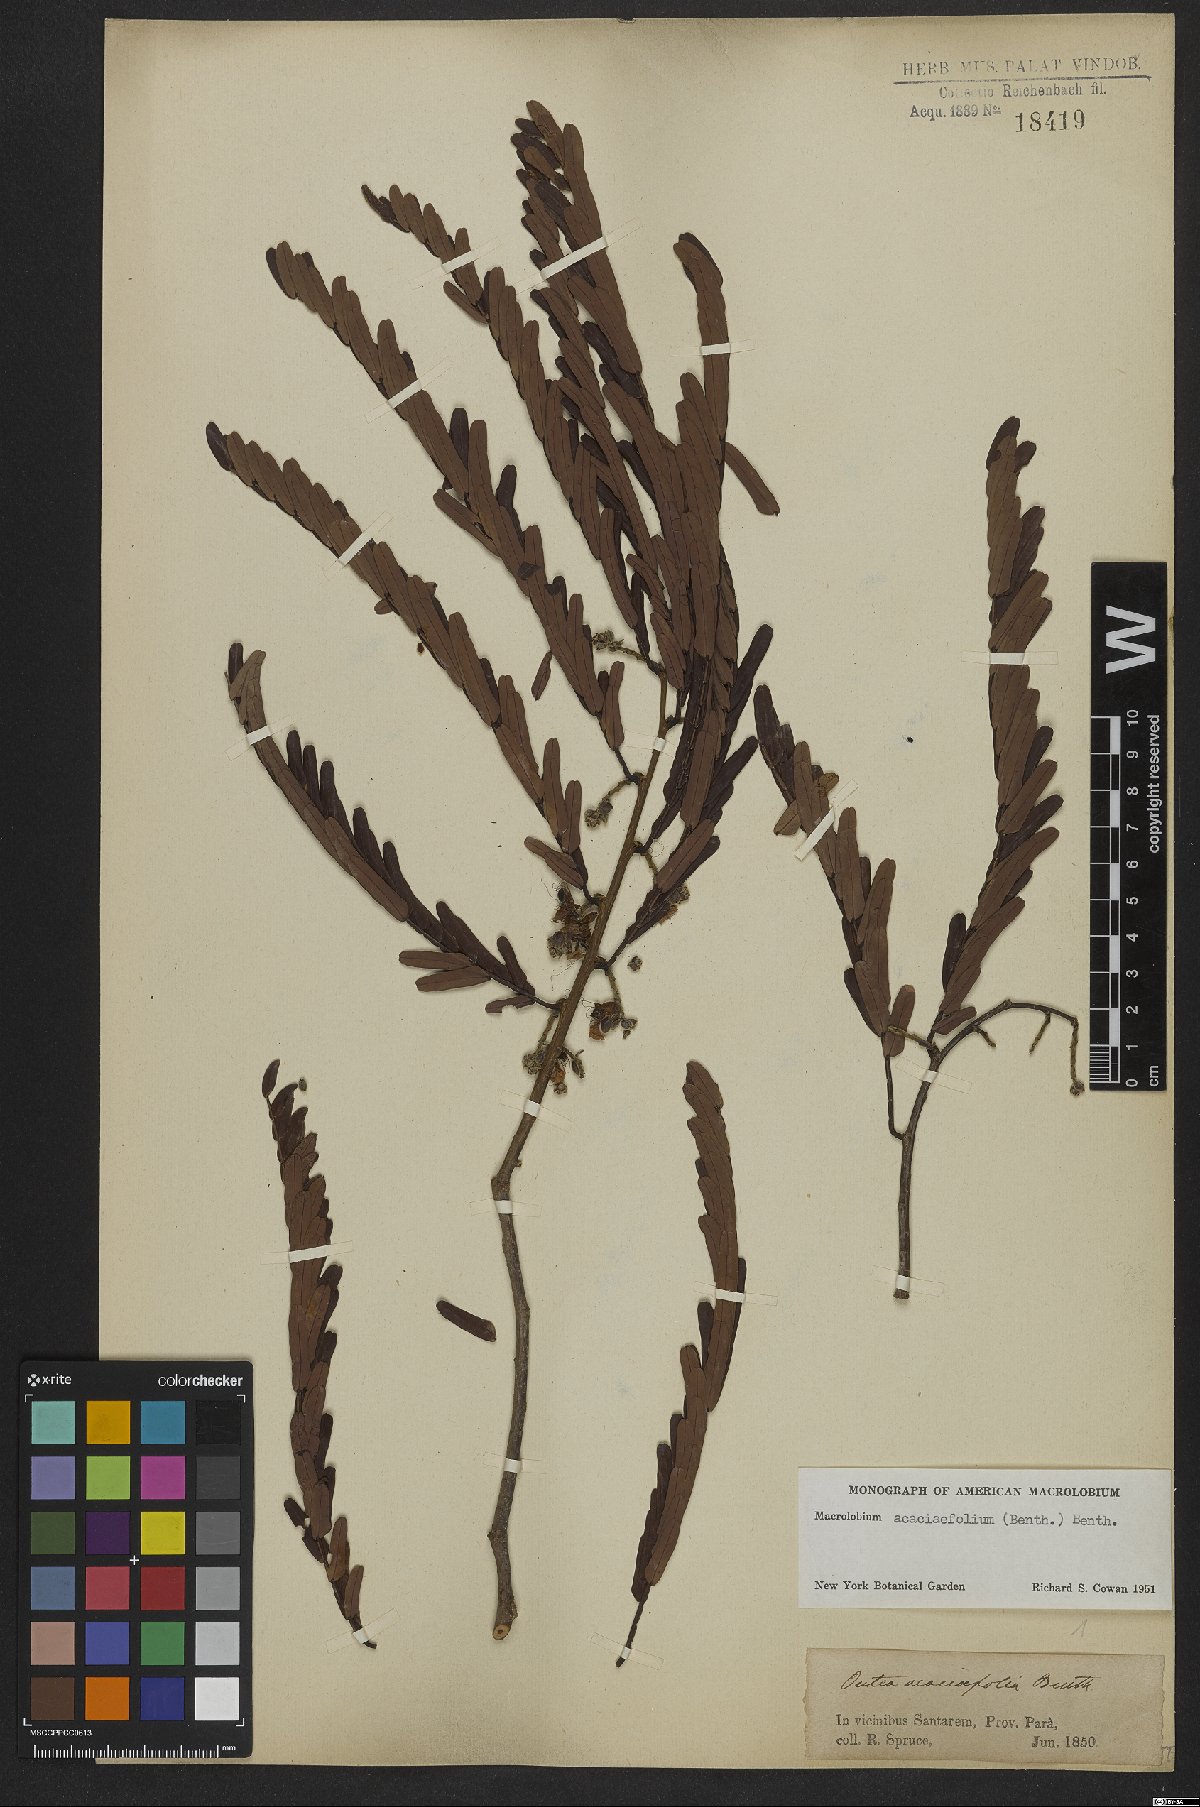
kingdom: Plantae
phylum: Tracheophyta
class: Magnoliopsida
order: Fabales
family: Fabaceae
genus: Macrolobium
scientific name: Macrolobium acaciifolium
